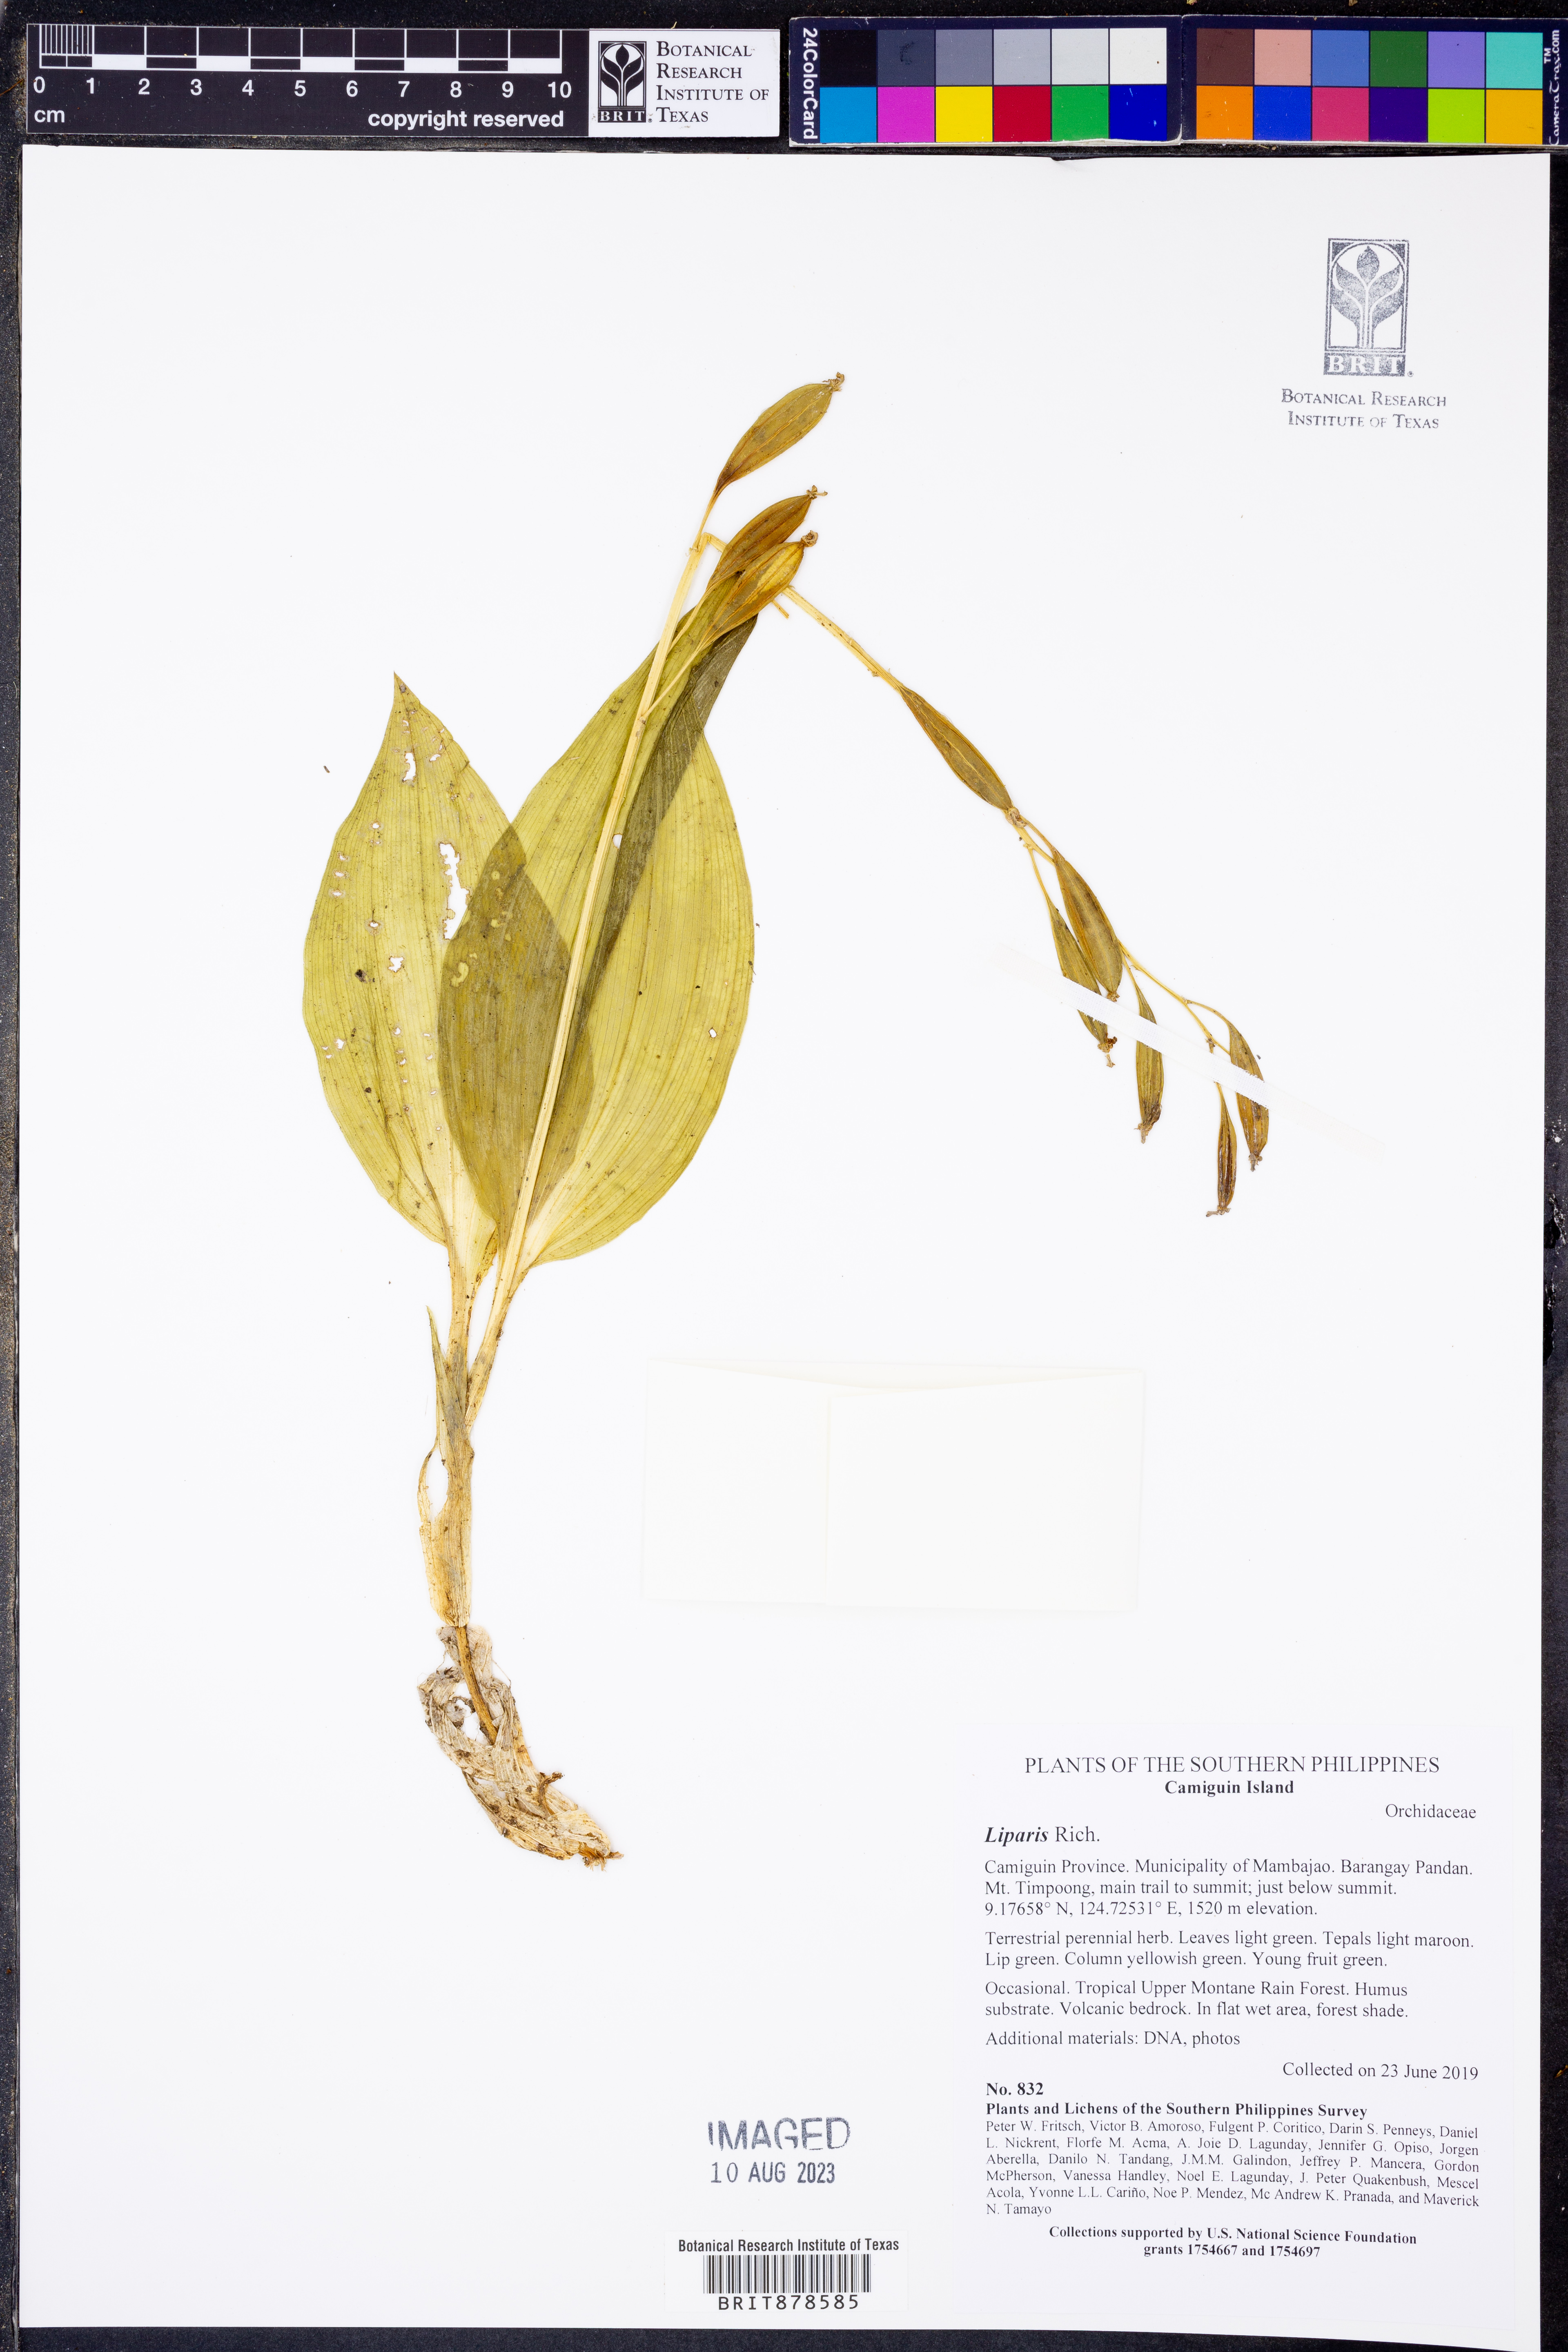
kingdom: Plantae
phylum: Tracheophyta
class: Liliopsida
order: Asparagales
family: Orchidaceae
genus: Liparis
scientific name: Liparis
